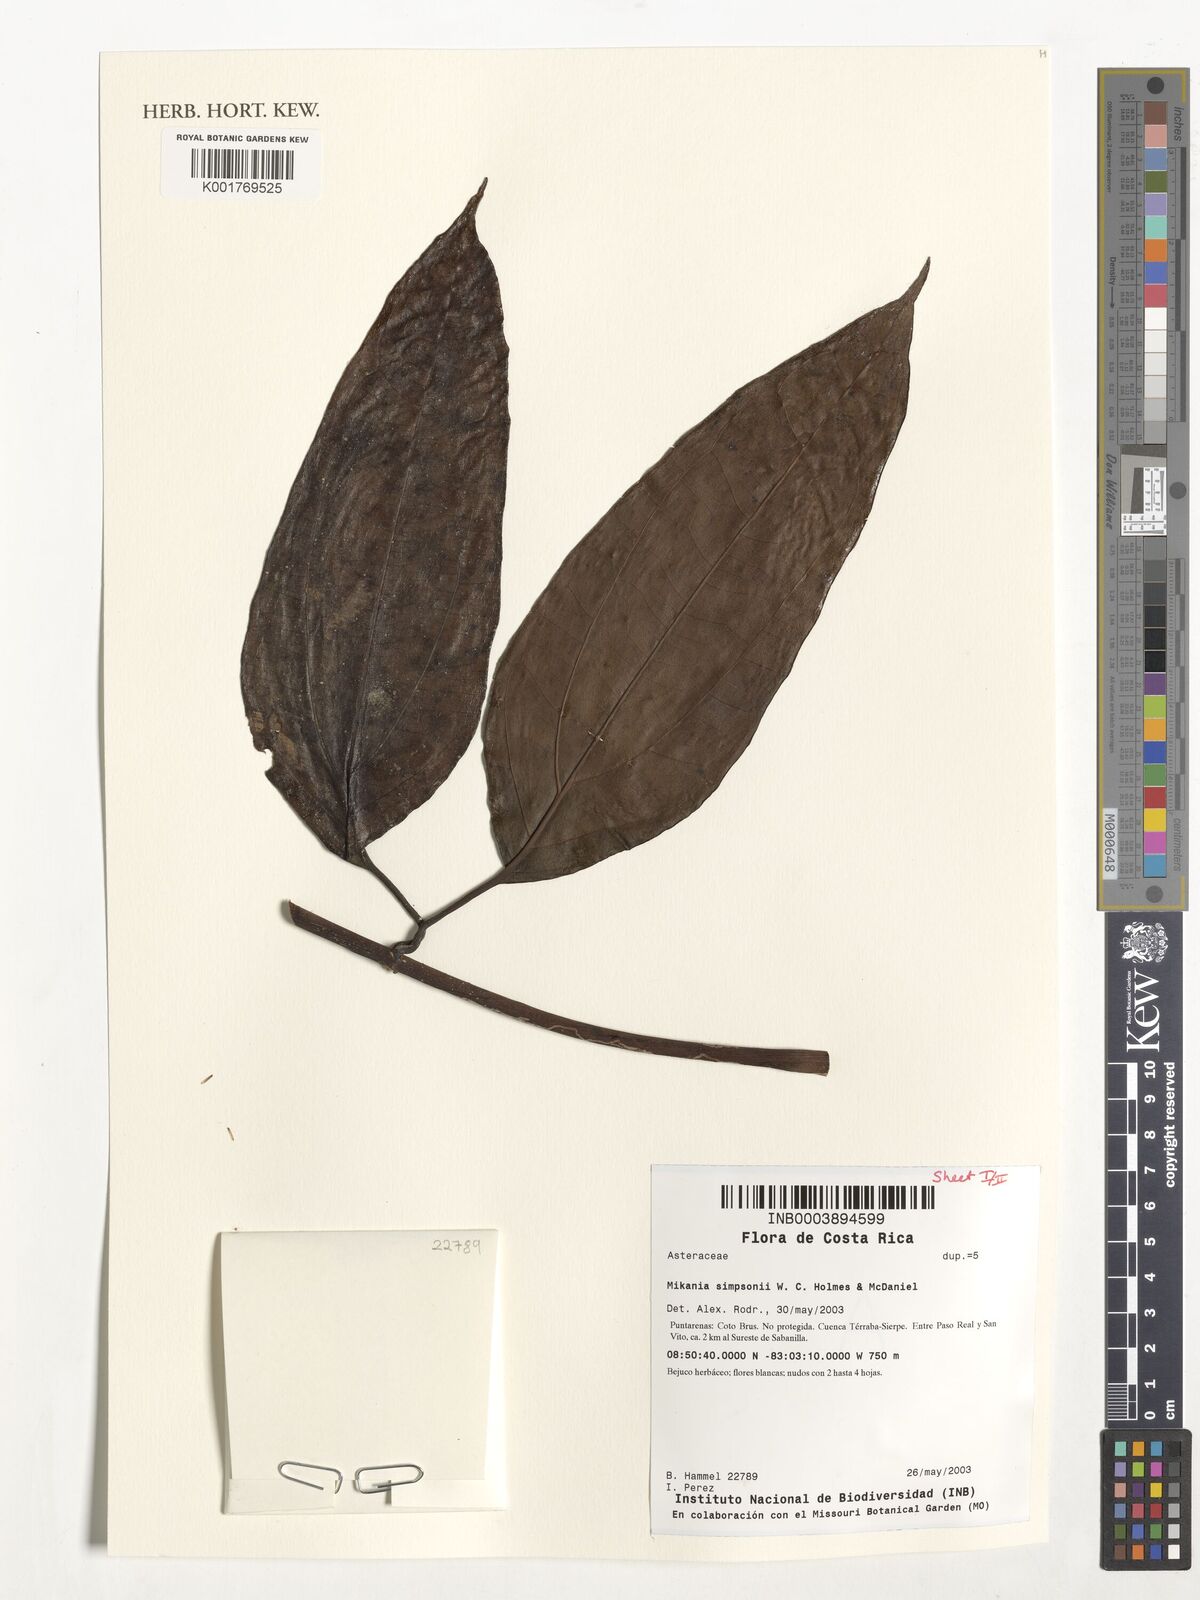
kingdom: Plantae
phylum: Tracheophyta
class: Magnoliopsida
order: Asterales
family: Asteraceae
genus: Mikania
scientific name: Mikania simpsonii
